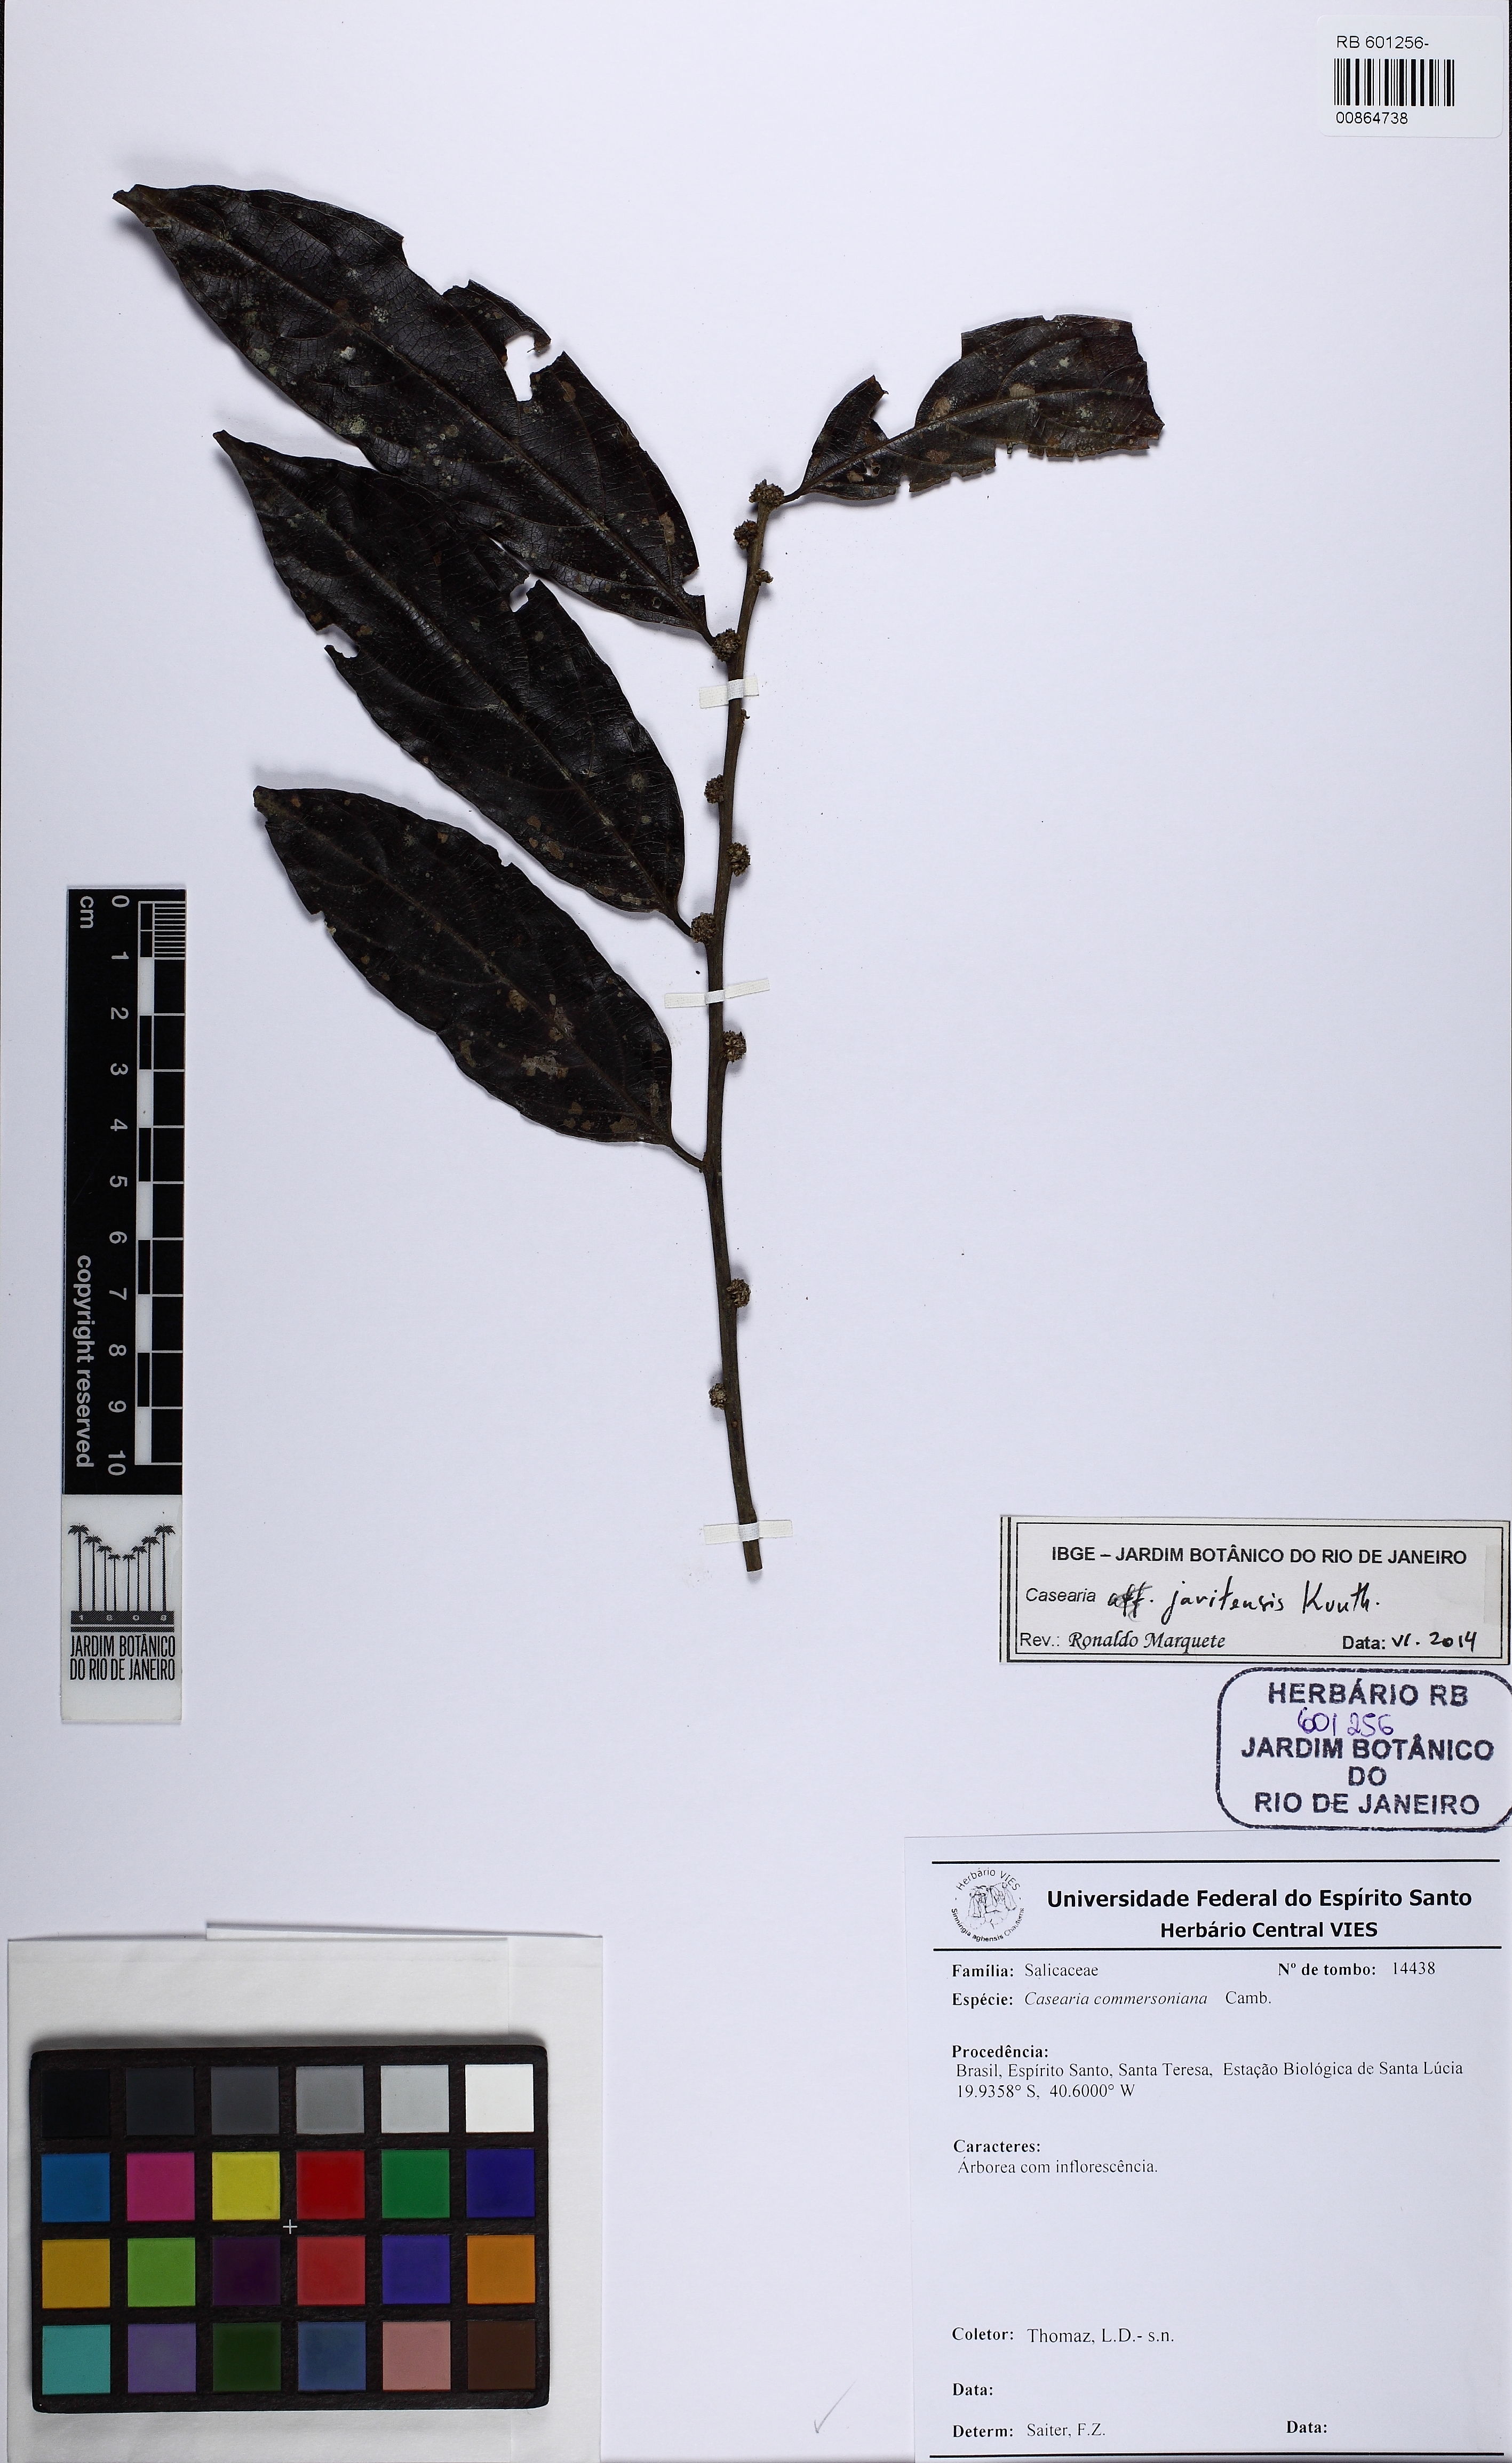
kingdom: Plantae
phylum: Tracheophyta
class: Magnoliopsida
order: Malpighiales
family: Salicaceae
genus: Piparea
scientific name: Piparea multiflora
